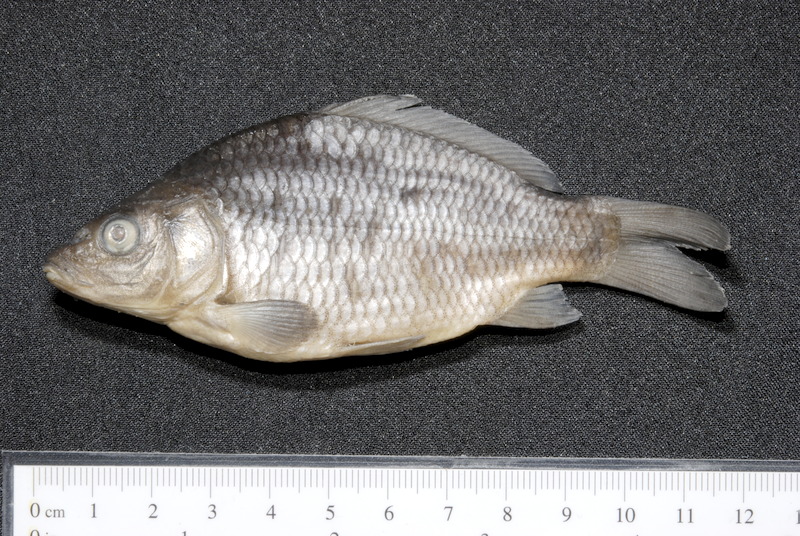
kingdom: Animalia
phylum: Chordata
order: Cypriniformes
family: Cyprinidae
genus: Cyprinus
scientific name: Cyprinus carpio
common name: Common carp
